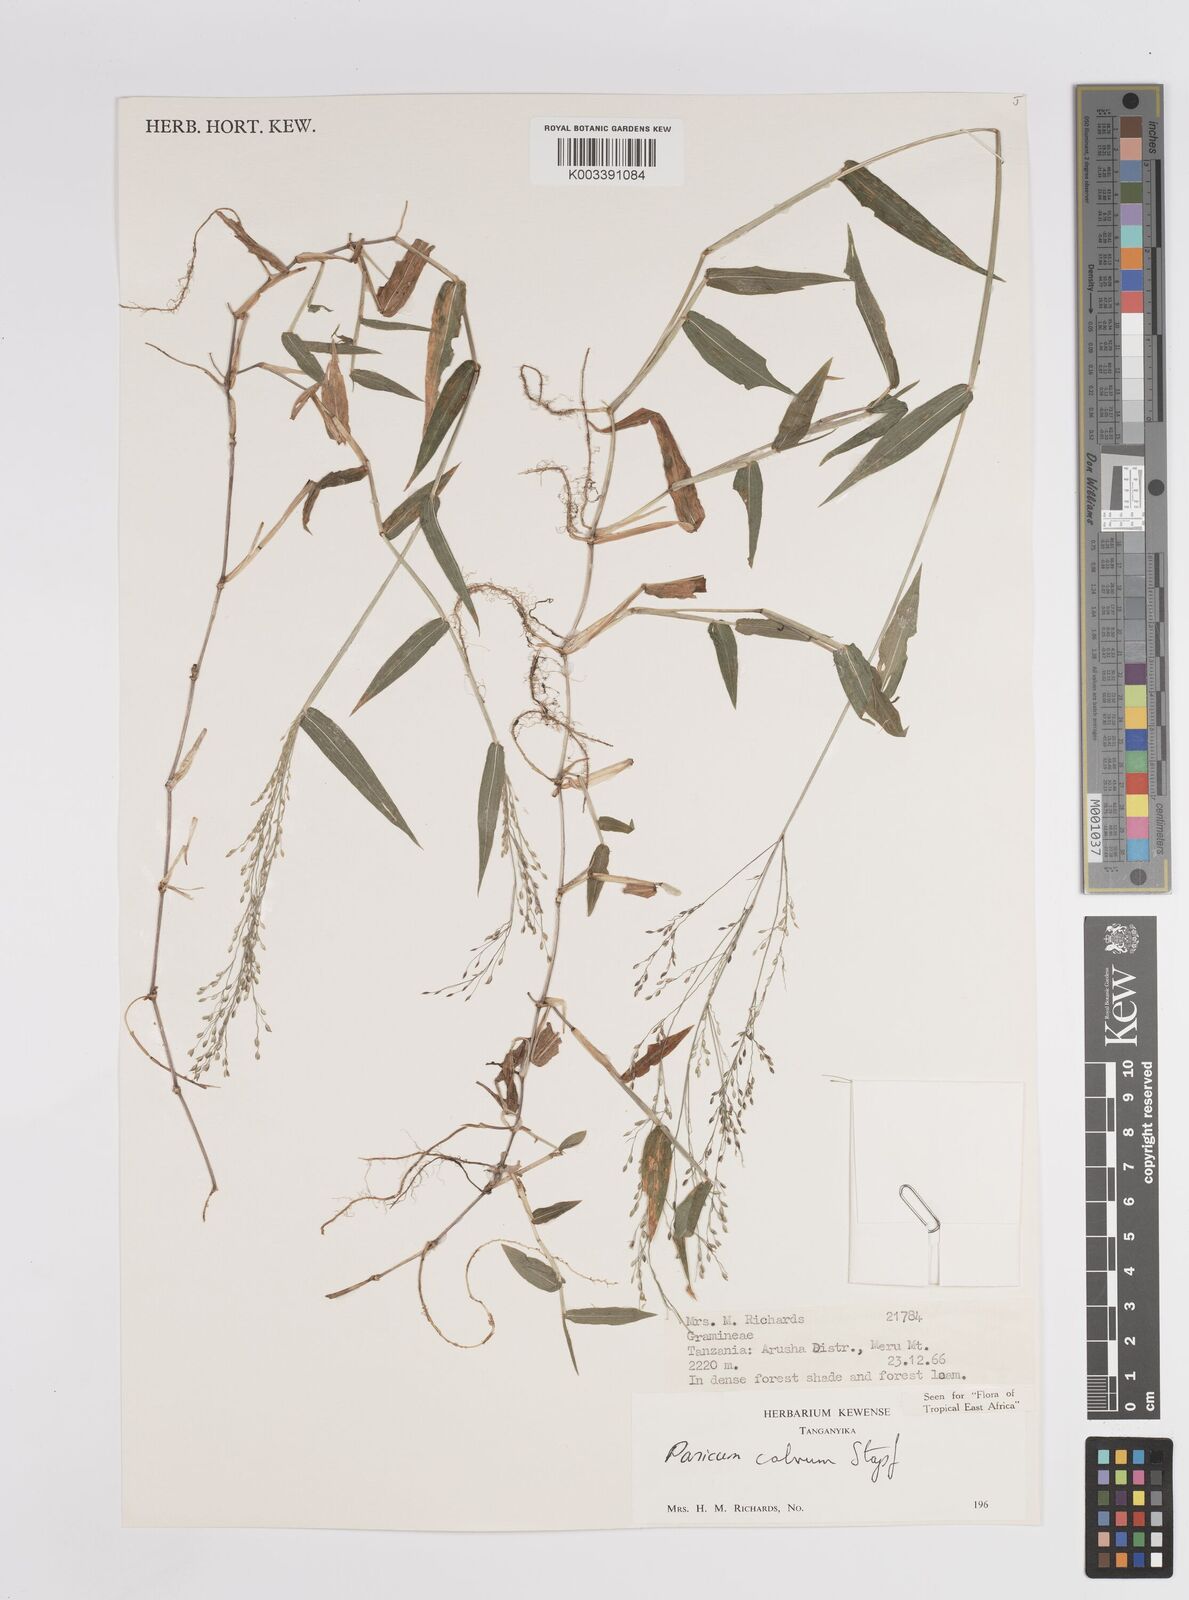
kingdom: Plantae
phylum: Tracheophyta
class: Liliopsida
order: Poales
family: Poaceae
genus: Panicum
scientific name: Panicum calvum
